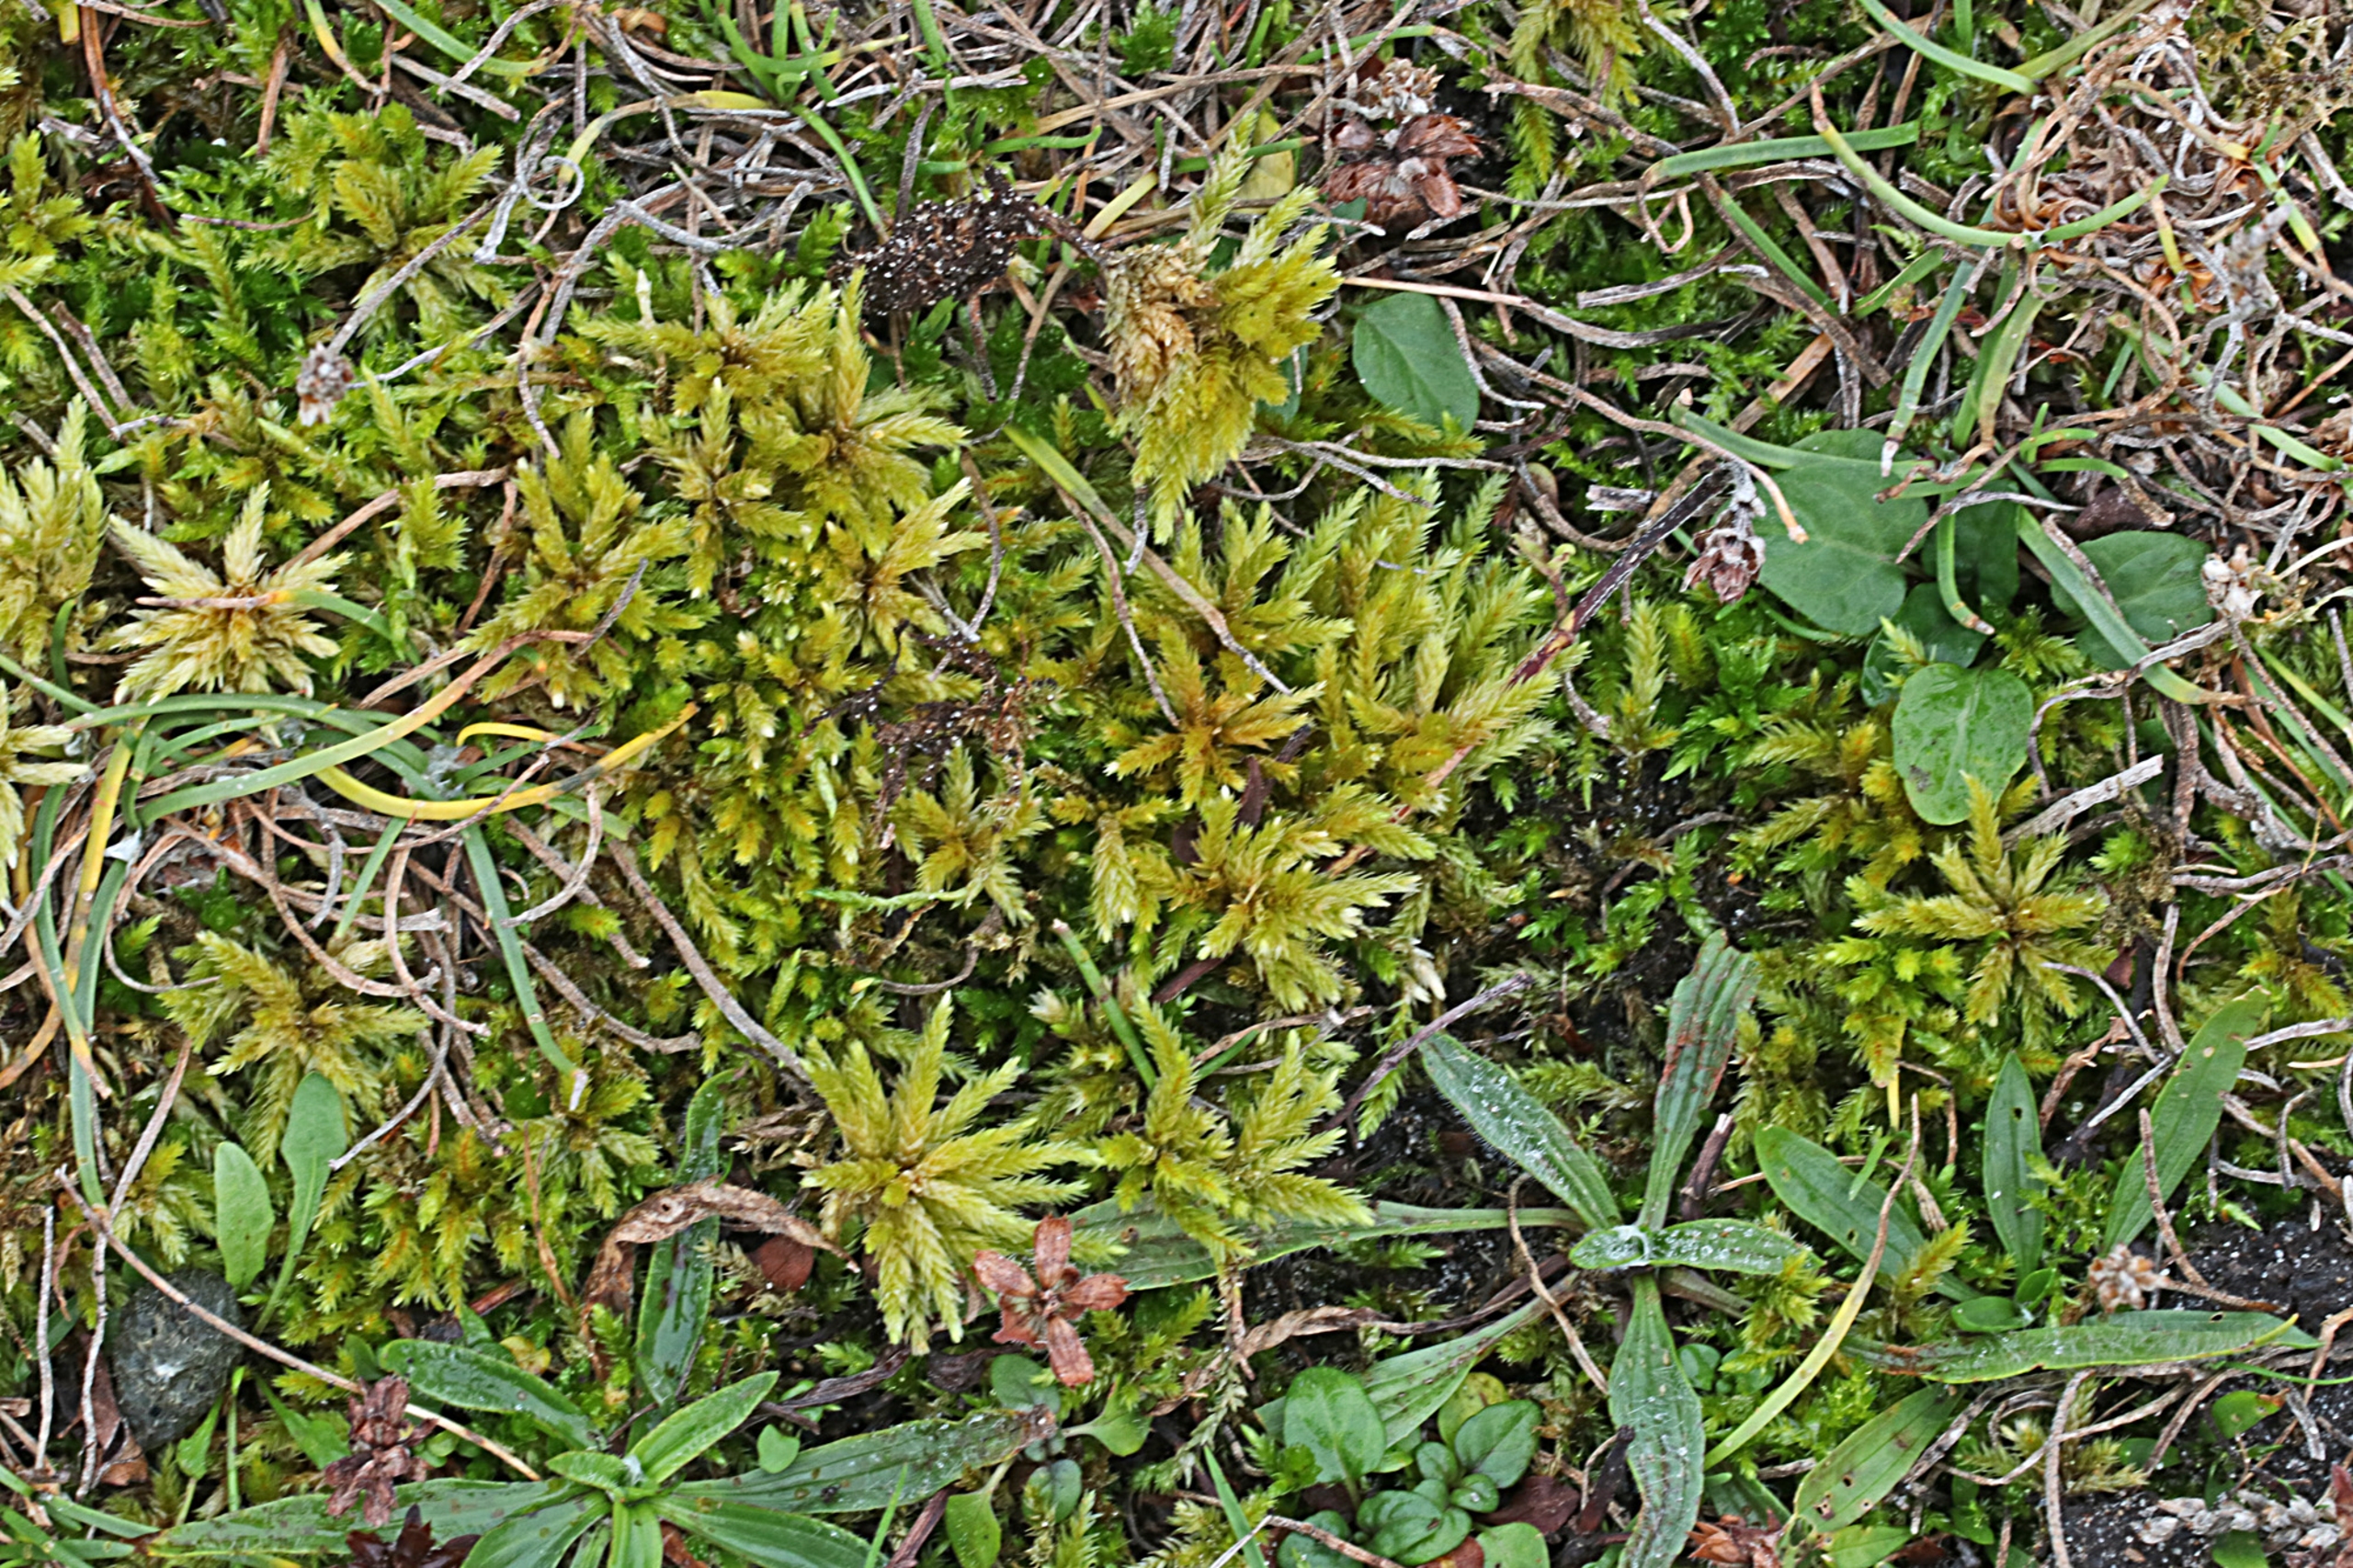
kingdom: Plantae
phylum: Bryophyta
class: Bryopsida
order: Hypnales
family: Climaciaceae
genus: Climacium
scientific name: Climacium dendroides
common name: Stor engkost
